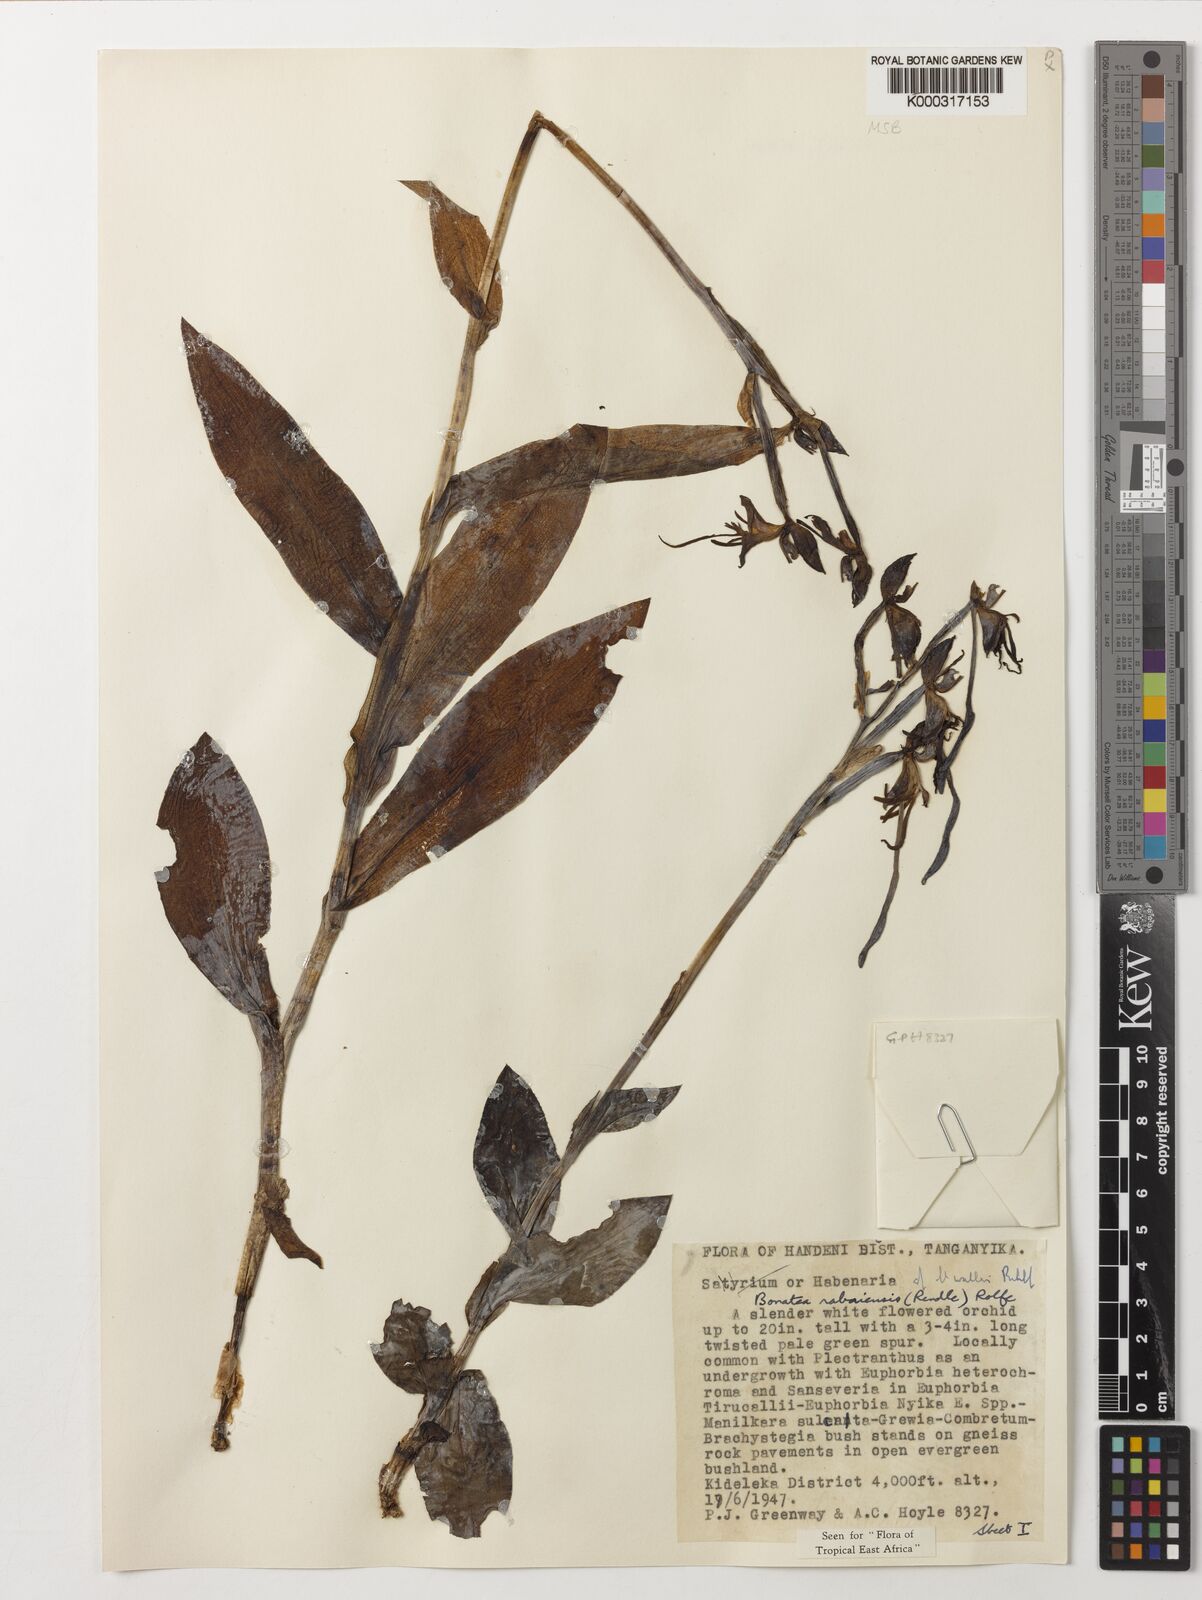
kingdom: Plantae
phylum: Tracheophyta
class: Liliopsida
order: Asparagales
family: Orchidaceae
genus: Bonatea
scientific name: Bonatea rabaiensis
